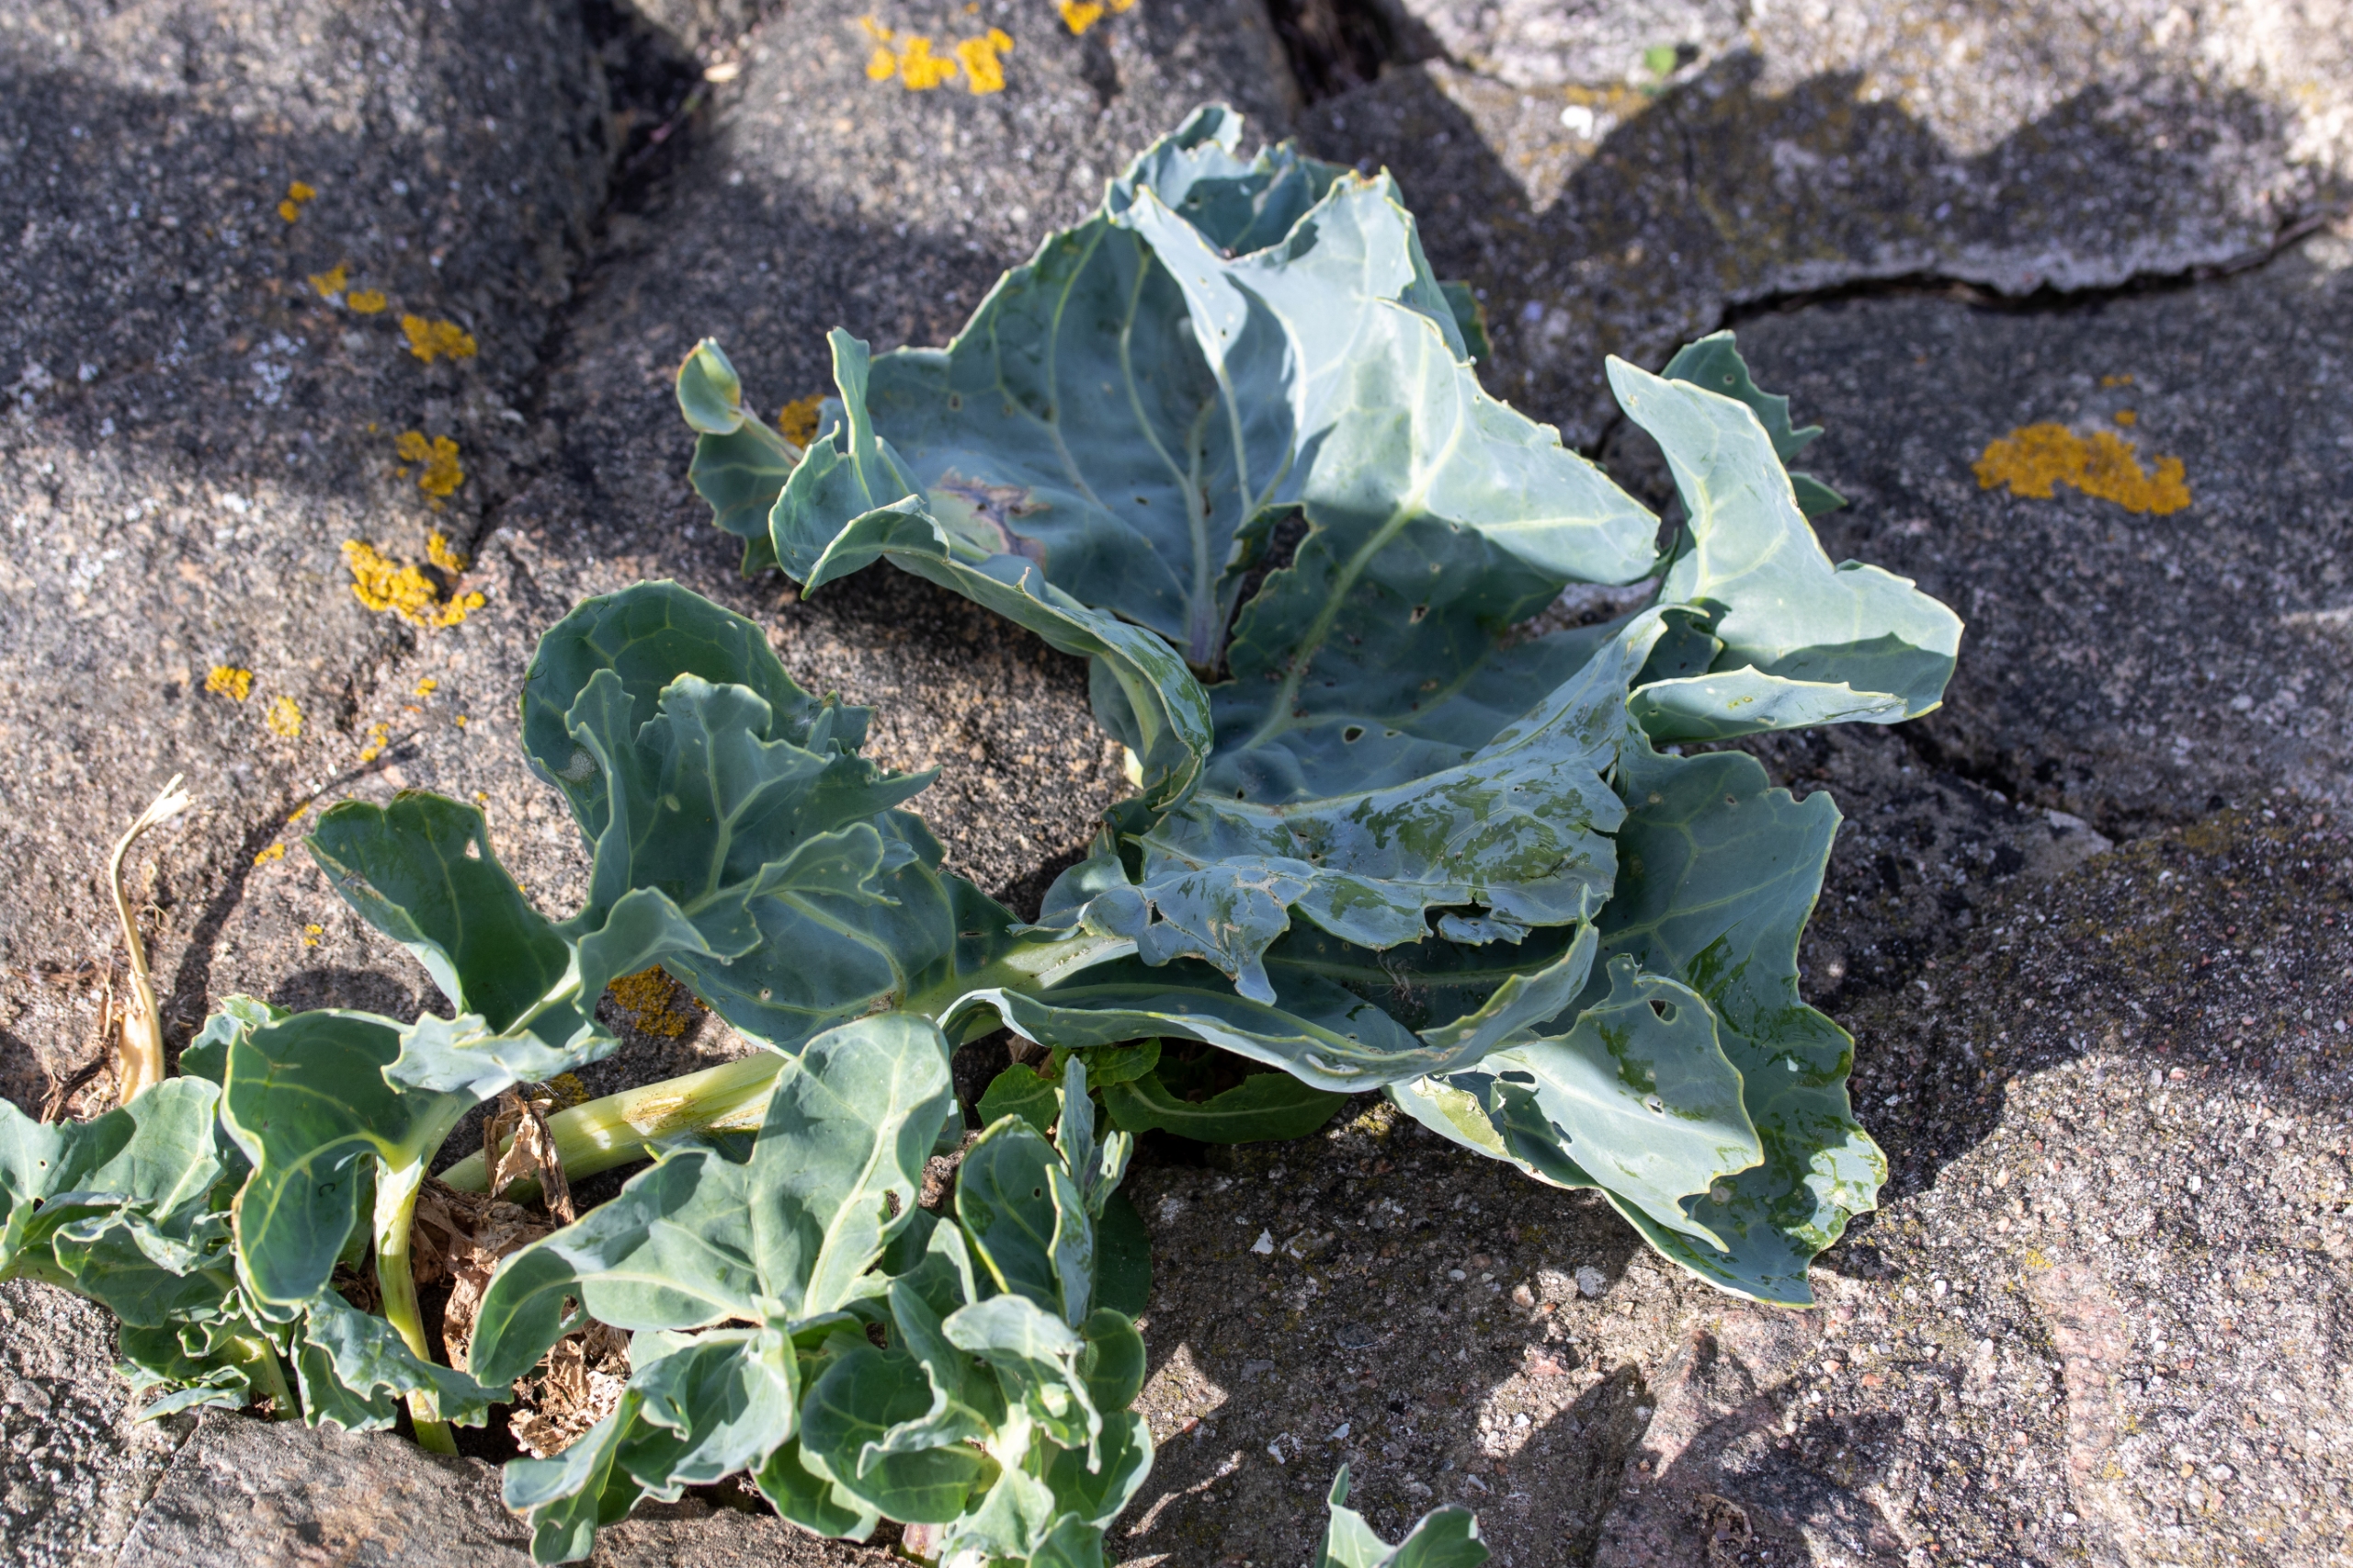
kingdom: Plantae
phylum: Tracheophyta
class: Magnoliopsida
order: Brassicales
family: Brassicaceae
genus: Crambe
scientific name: Crambe maritima
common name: Strandkål
